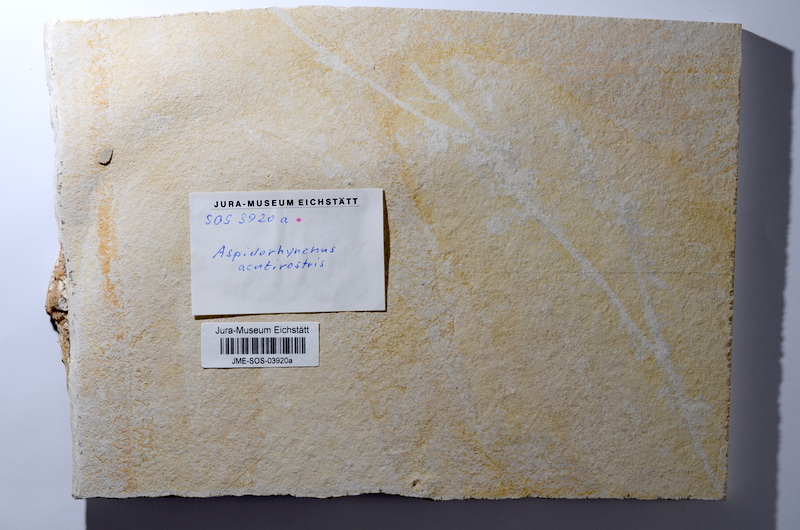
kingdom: Animalia
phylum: Chordata
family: Aspidorhynchidae
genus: Aspidorhynchus
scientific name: Aspidorhynchus acutirostris
